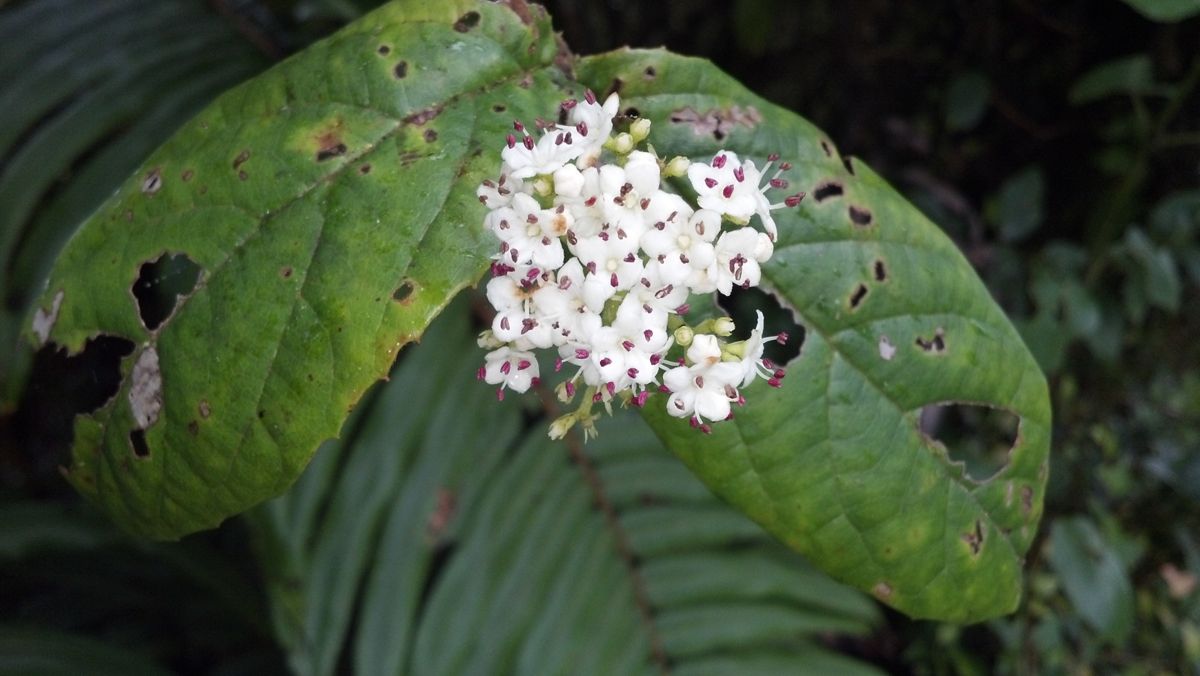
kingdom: Plantae
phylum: Tracheophyta
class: Magnoliopsida
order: Dipsacales
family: Viburnaceae
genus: Viburnum
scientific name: Viburnum lautum
